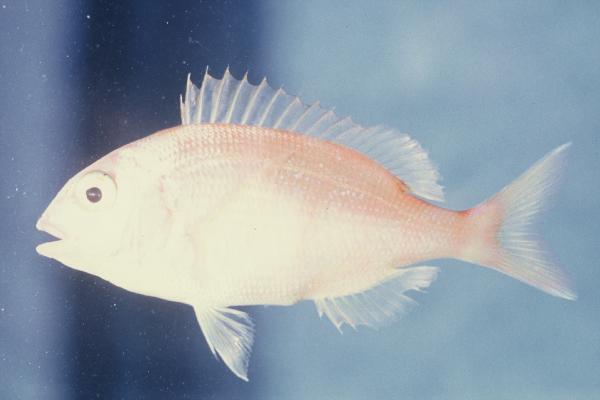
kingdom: Animalia
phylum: Chordata
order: Perciformes
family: Sparidae
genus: Pagrus
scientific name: Pagrus pagrus
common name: Red porgy
